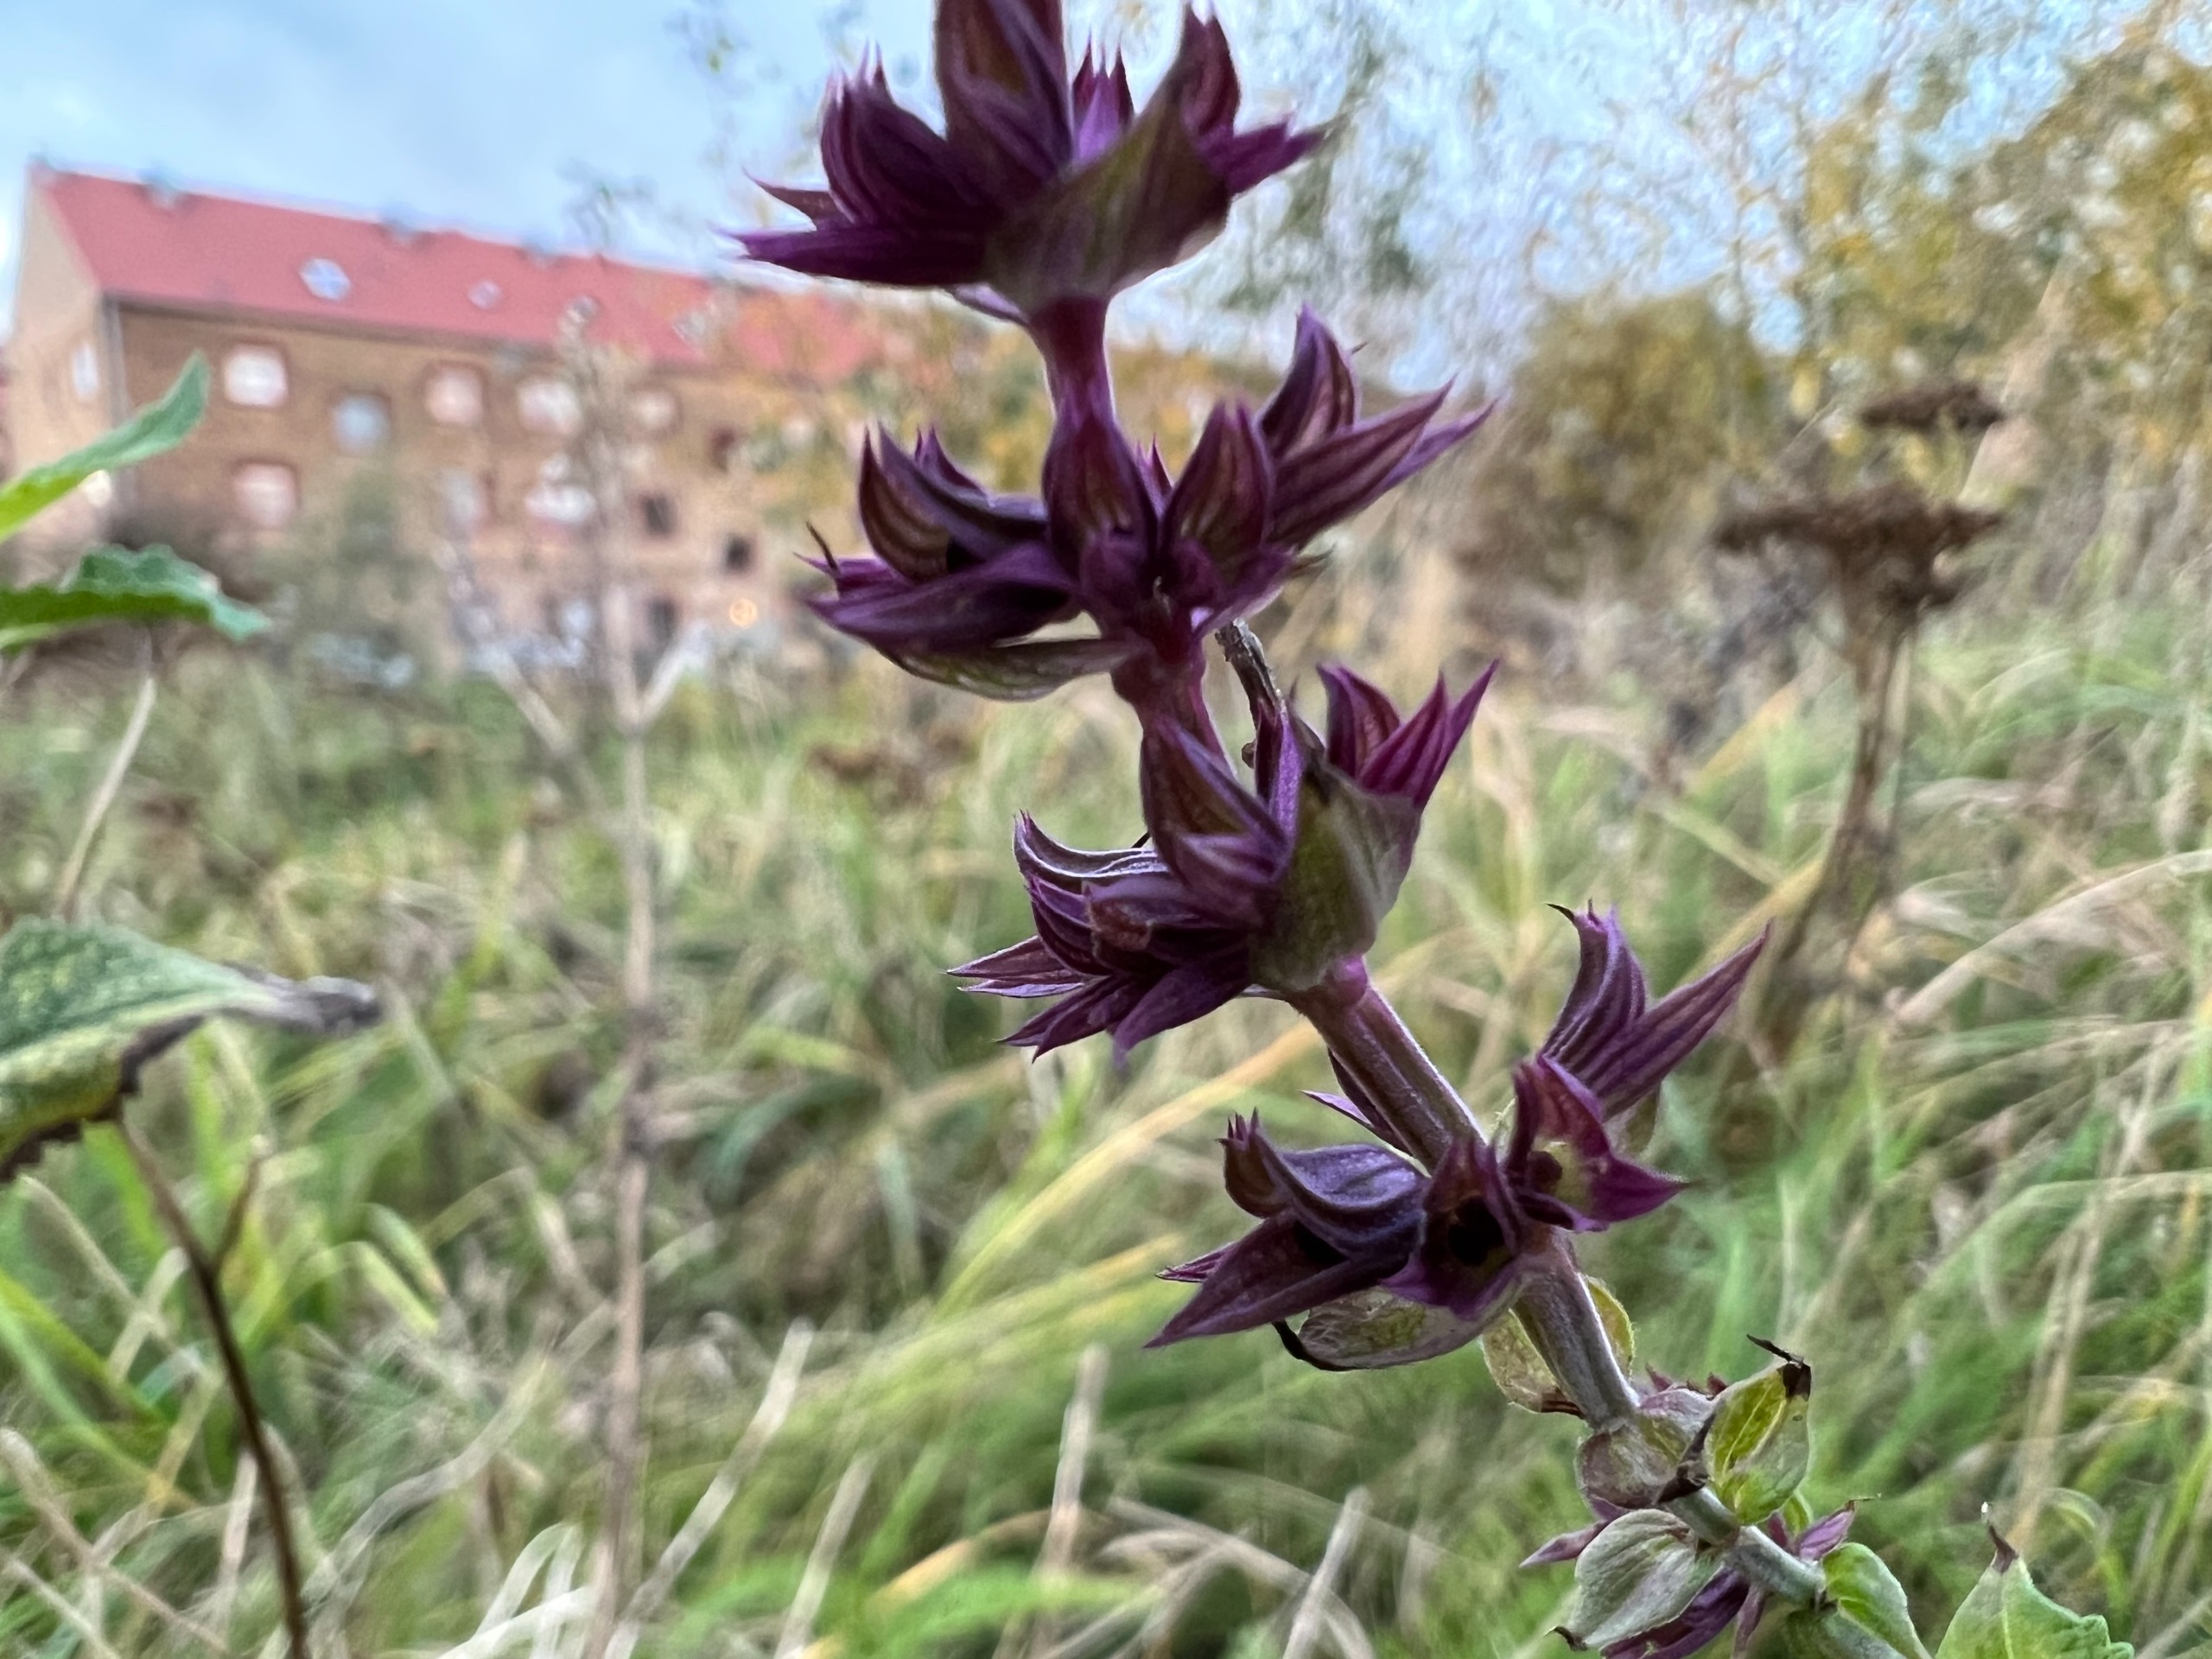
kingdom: Plantae
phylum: Tracheophyta
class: Magnoliopsida
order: Lamiales
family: Lamiaceae
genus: Salvia
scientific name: Salvia nemorosa
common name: Småblomstret salvie
